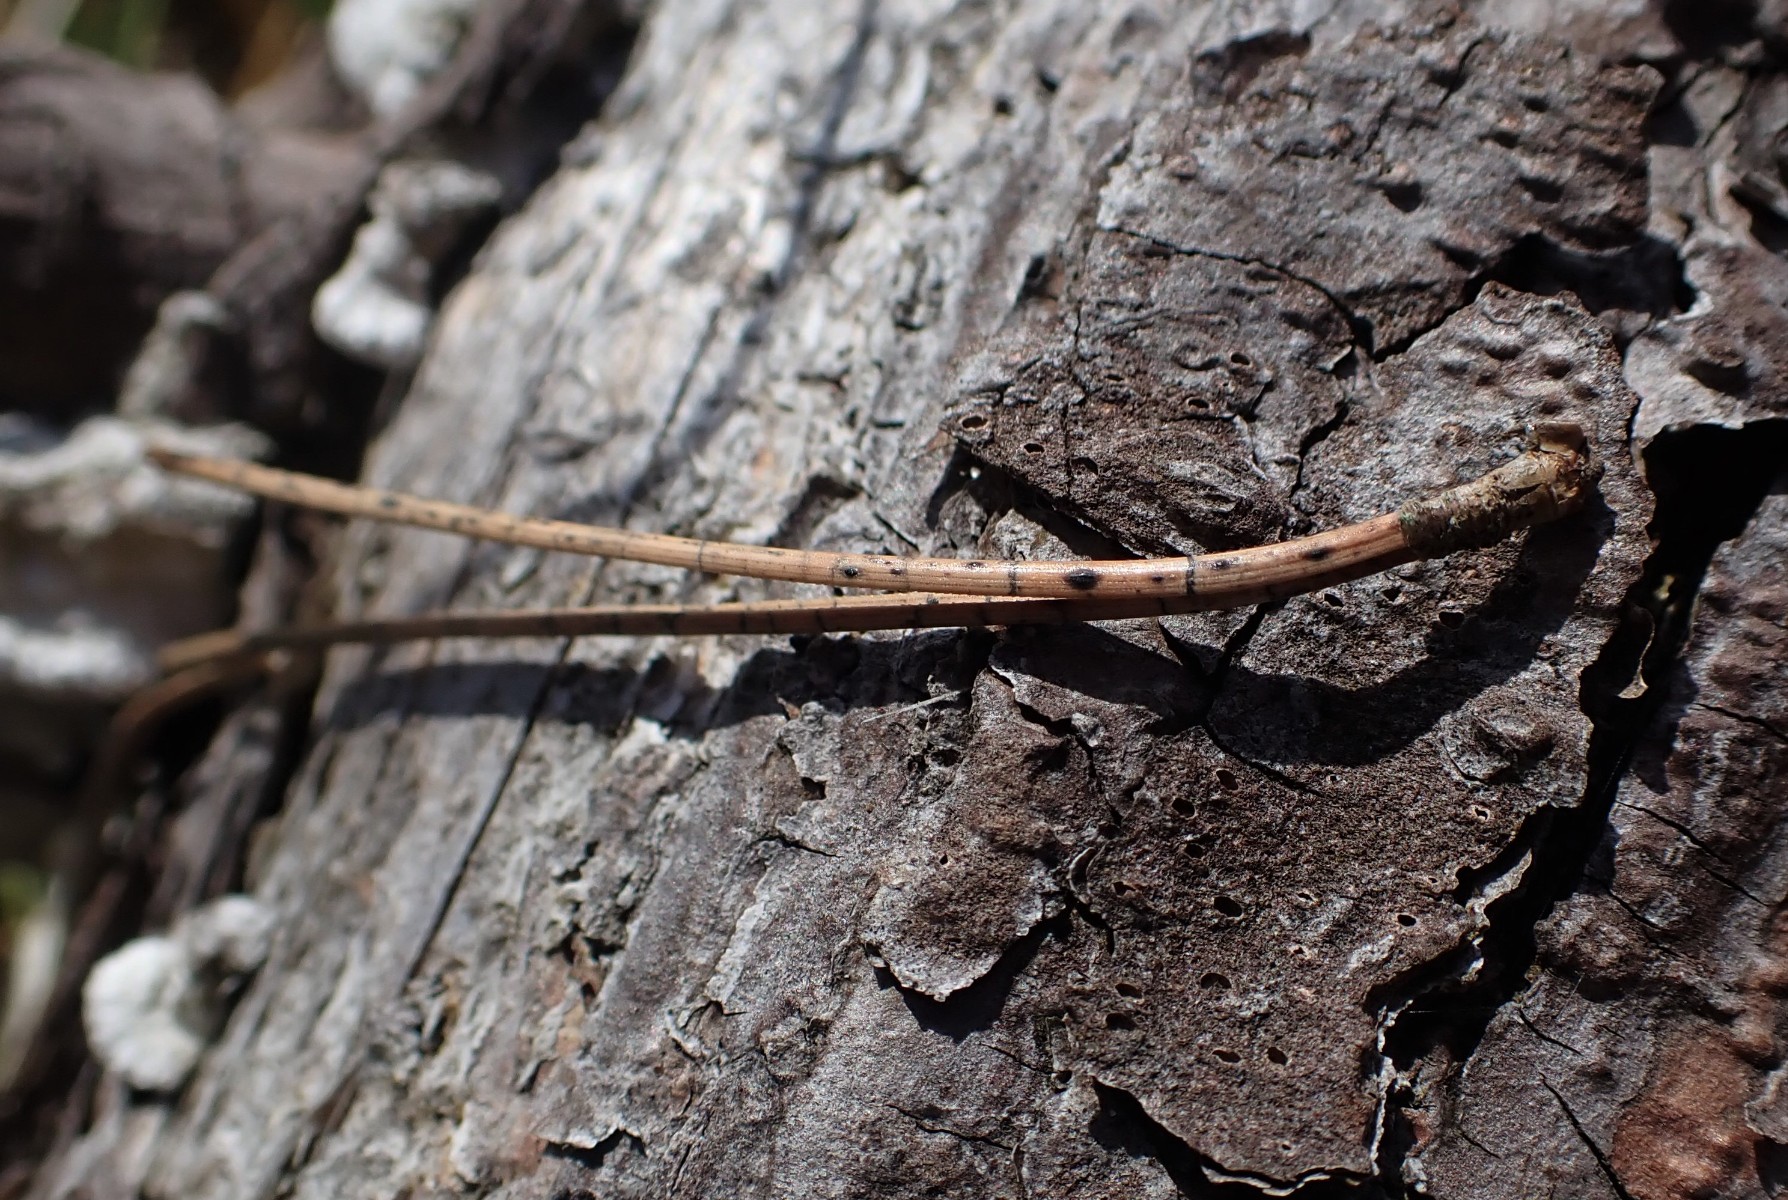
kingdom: Fungi
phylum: Ascomycota
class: Leotiomycetes
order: Rhytismatales
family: Rhytismataceae
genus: Lophodermium
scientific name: Lophodermium pinastri
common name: fyrre-fureplet
